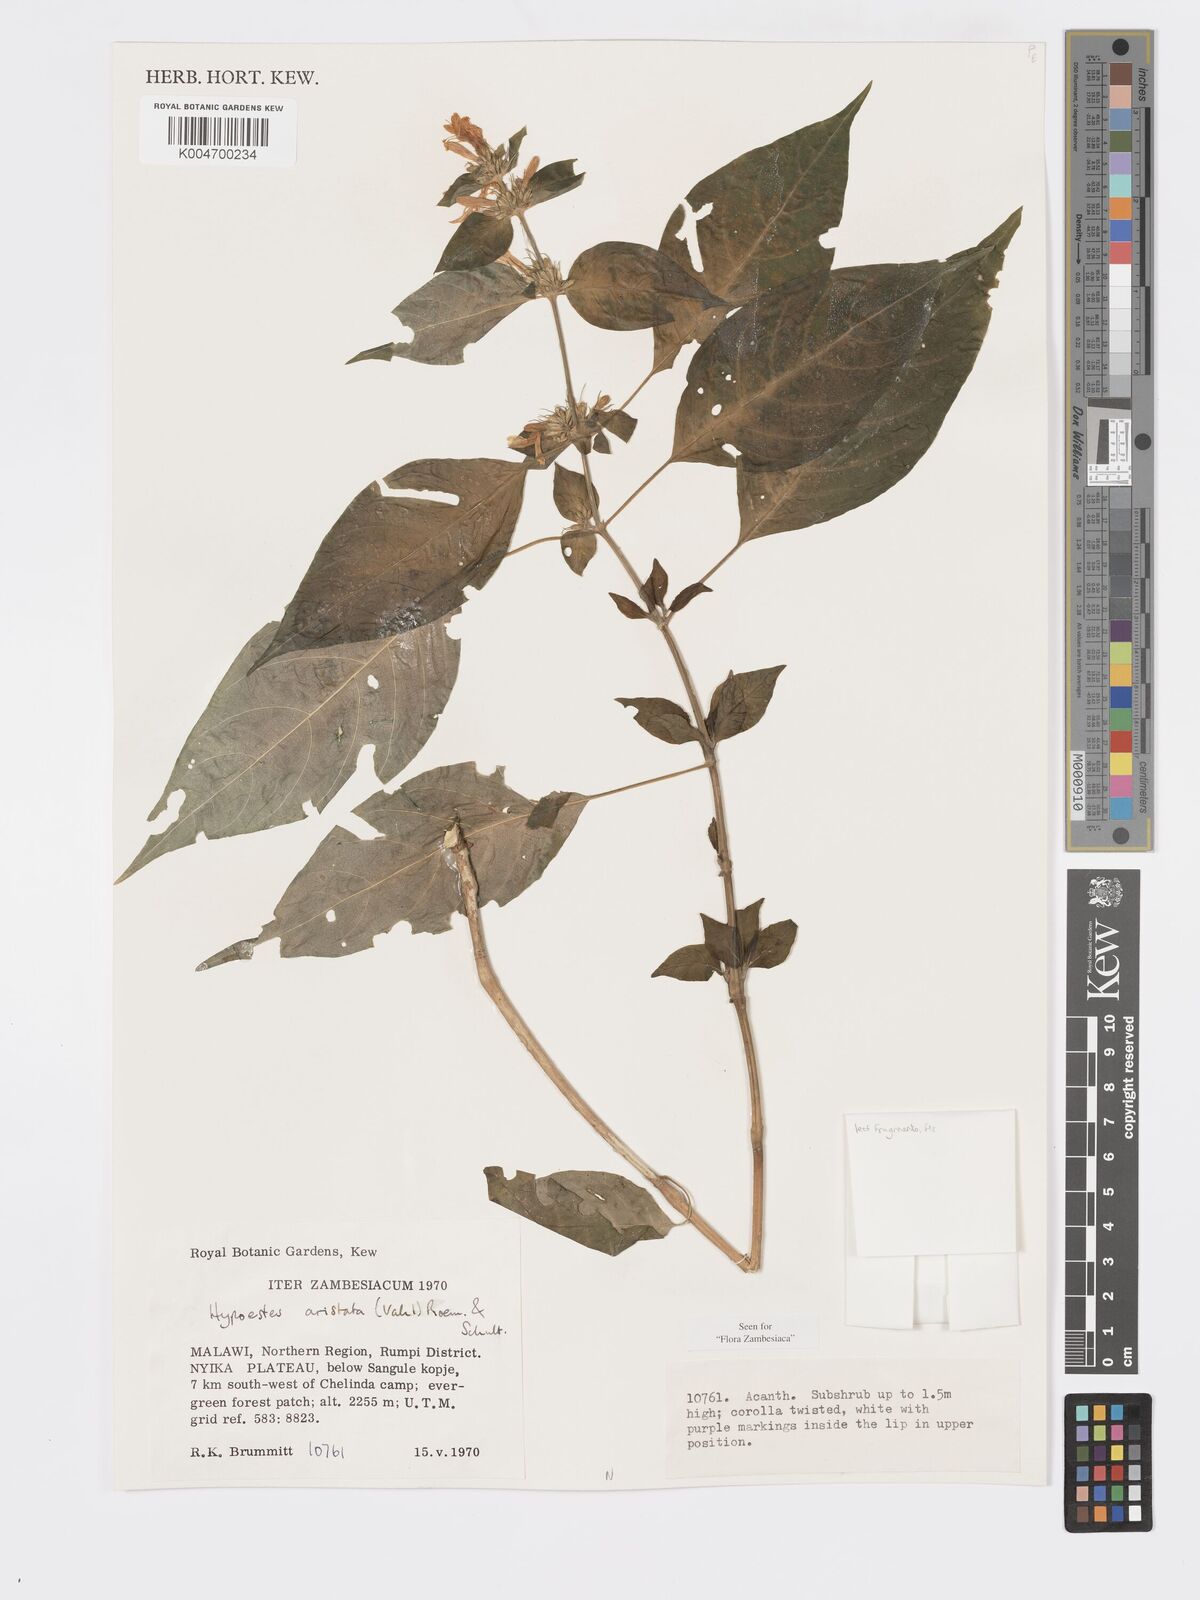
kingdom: Plantae
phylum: Tracheophyta
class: Magnoliopsida
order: Lamiales
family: Acanthaceae
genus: Hypoestes
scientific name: Hypoestes aristata
